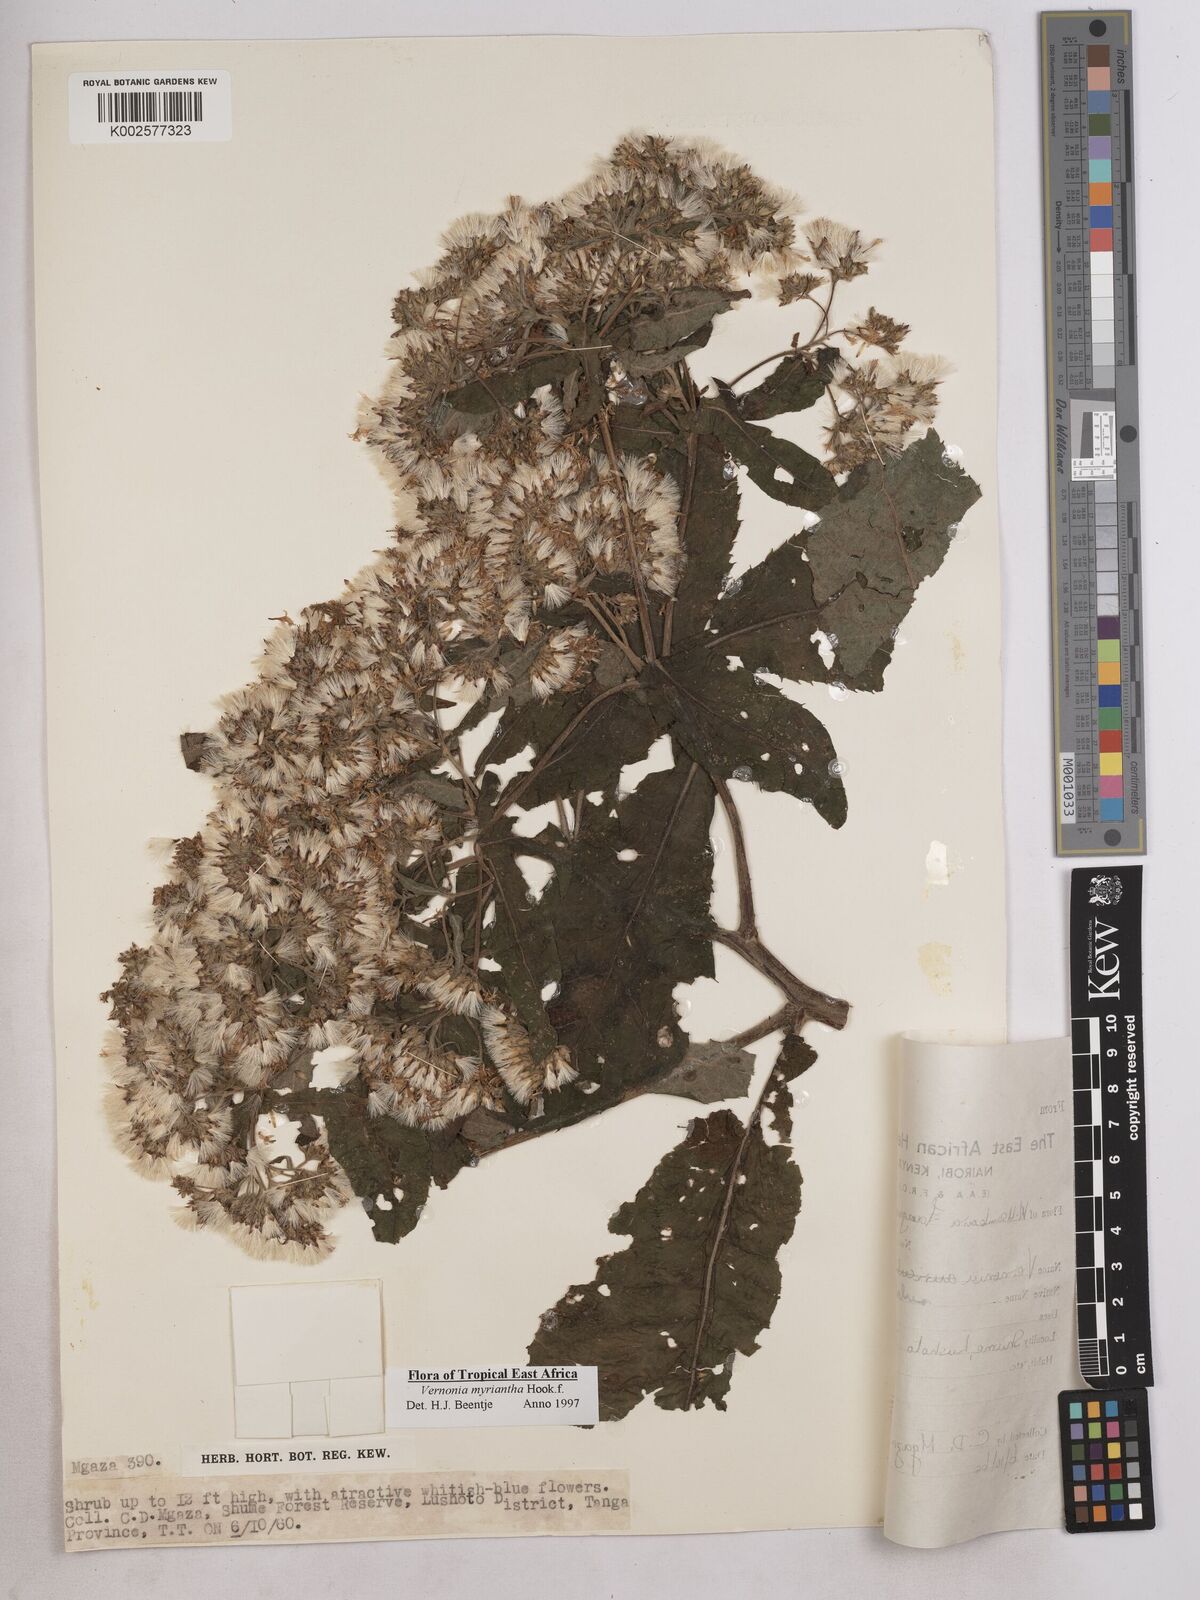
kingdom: Plantae
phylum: Tracheophyta
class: Magnoliopsida
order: Asterales
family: Asteraceae
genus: Gymnanthemum
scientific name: Gymnanthemum myrianthum
